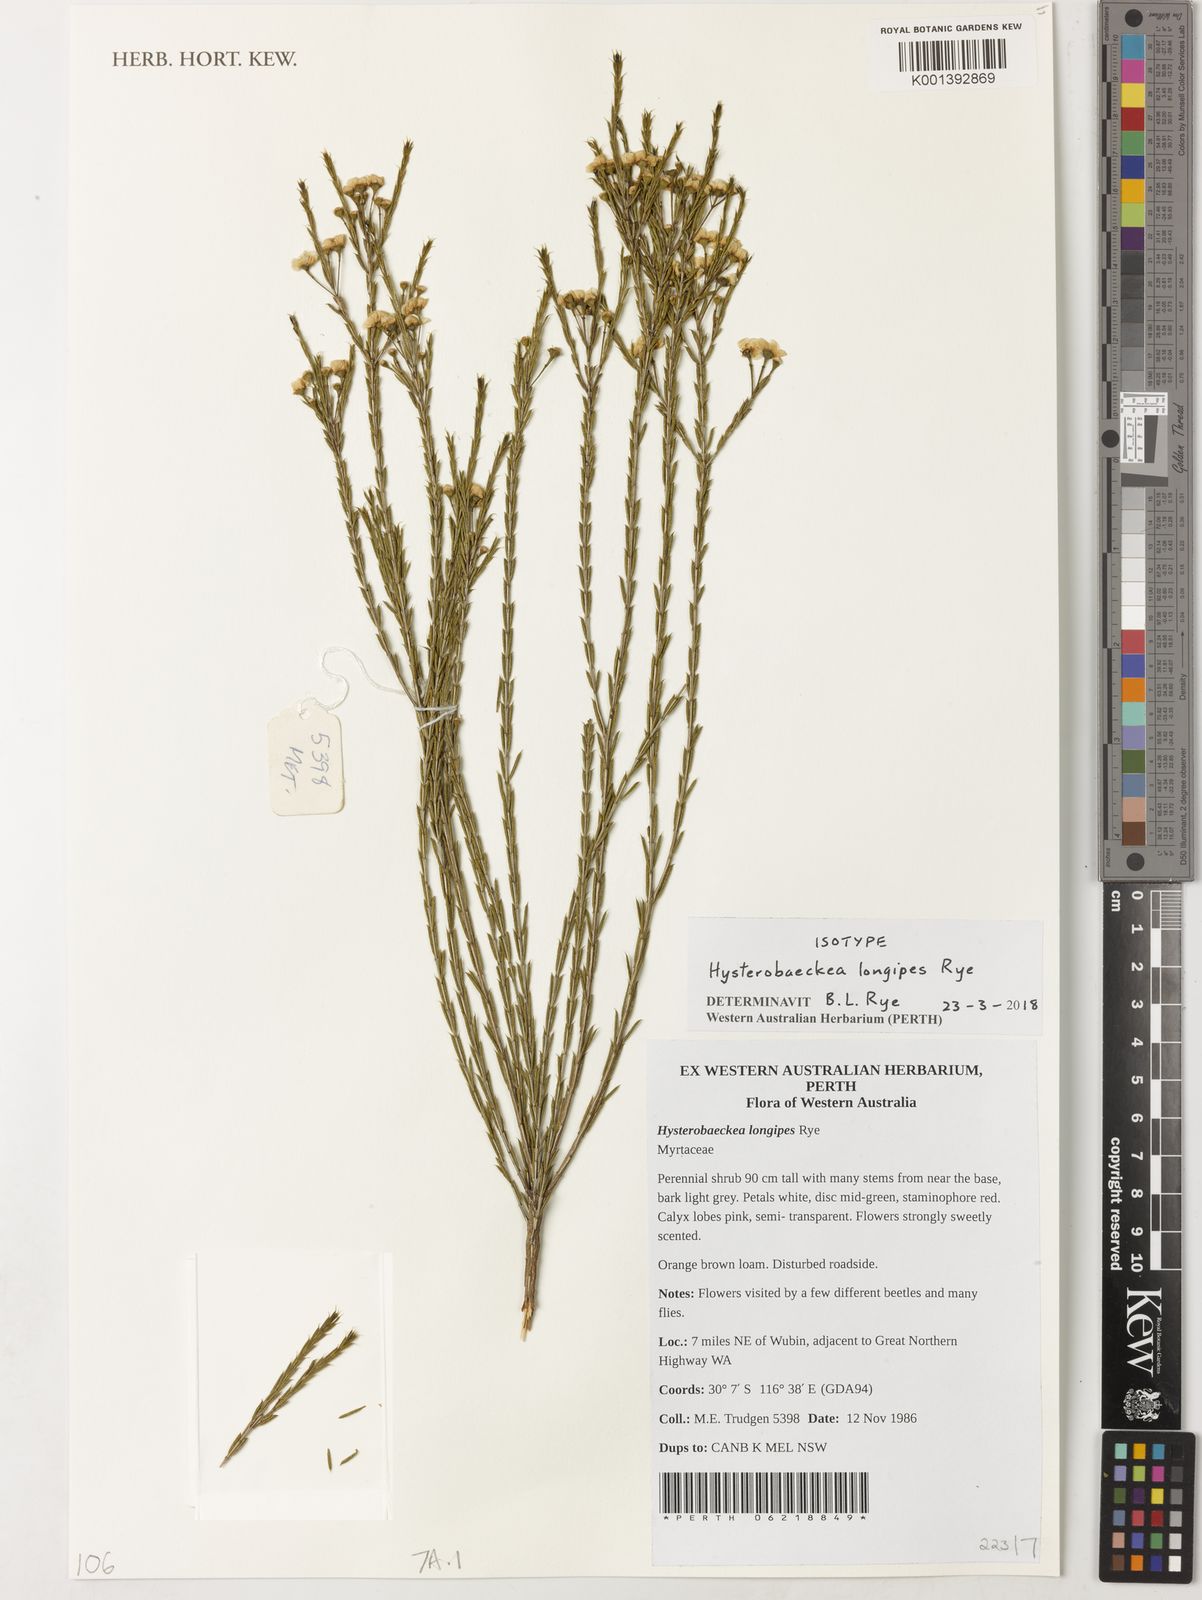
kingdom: Plantae
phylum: Tracheophyta
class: Magnoliopsida
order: Myrtales
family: Myrtaceae
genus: Hysterobaeckea
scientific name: Hysterobaeckea longipes
